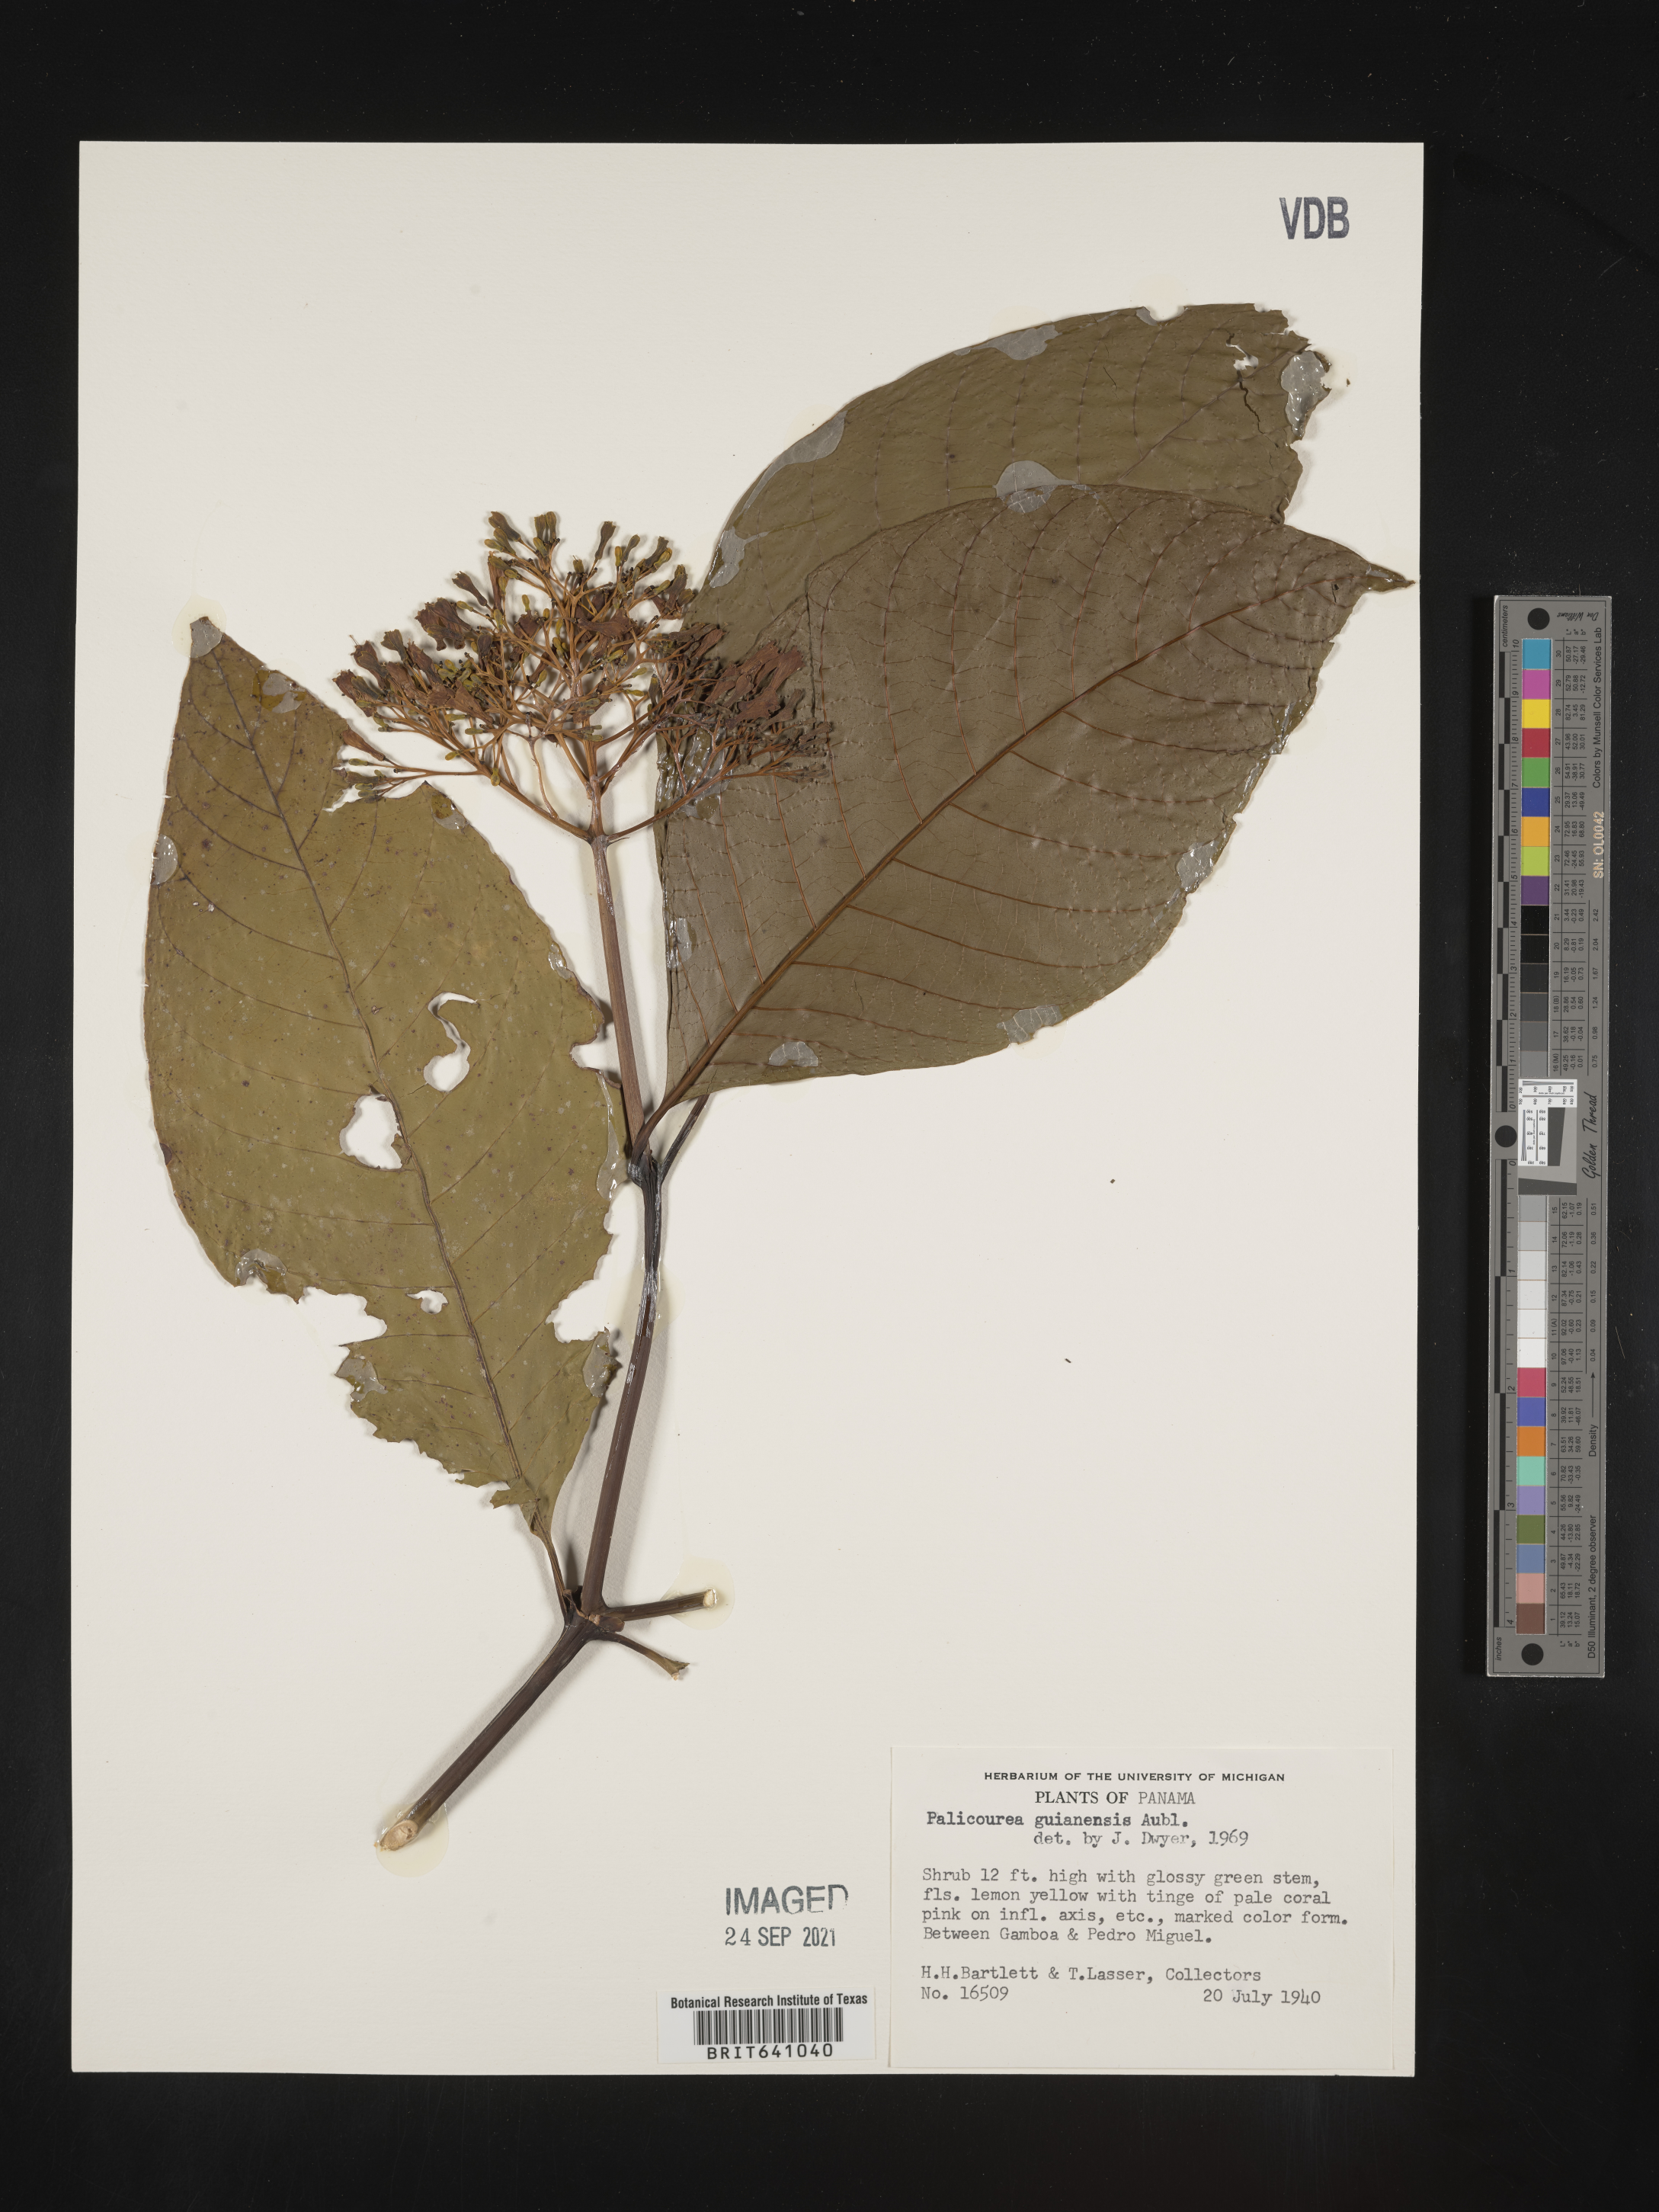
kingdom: Plantae
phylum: Tracheophyta
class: Magnoliopsida
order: Gentianales
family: Rubiaceae
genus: Palicourea
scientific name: Palicourea
